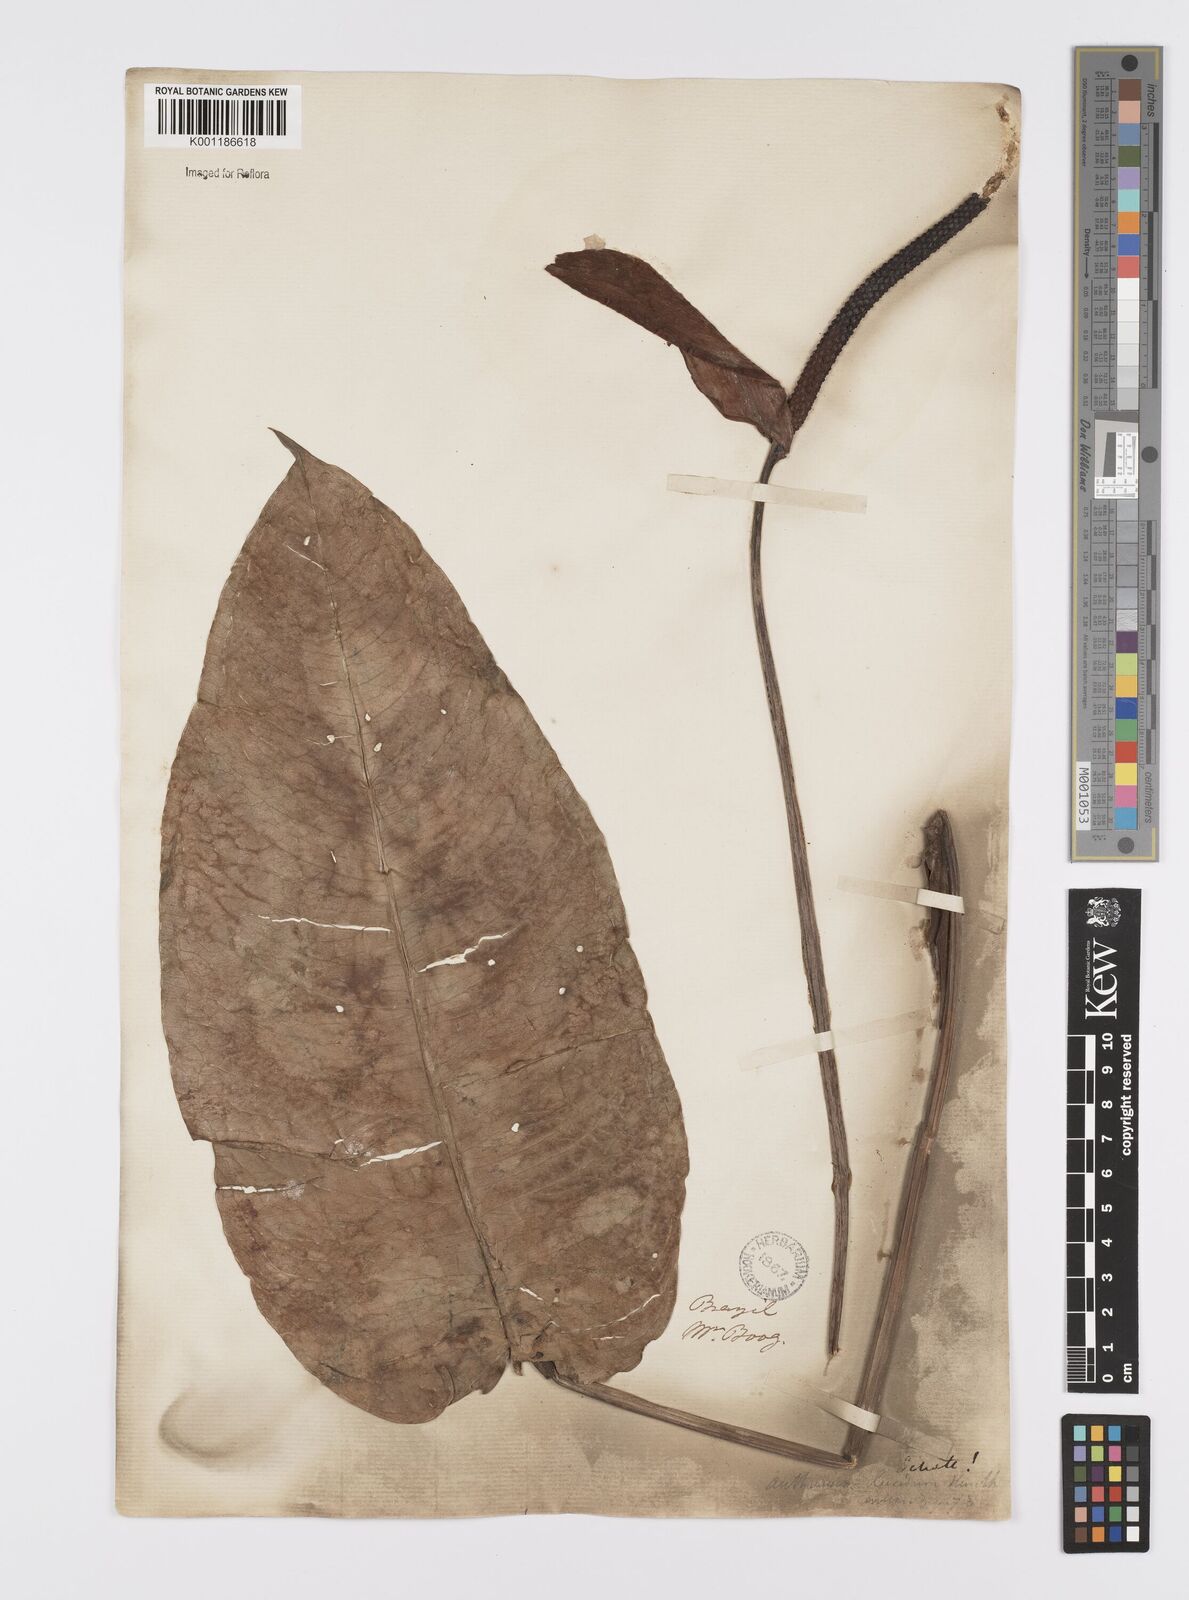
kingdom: Plantae
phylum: Tracheophyta
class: Liliopsida
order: Alismatales
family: Araceae
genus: Anthurium
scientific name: Anthurium lucidum
